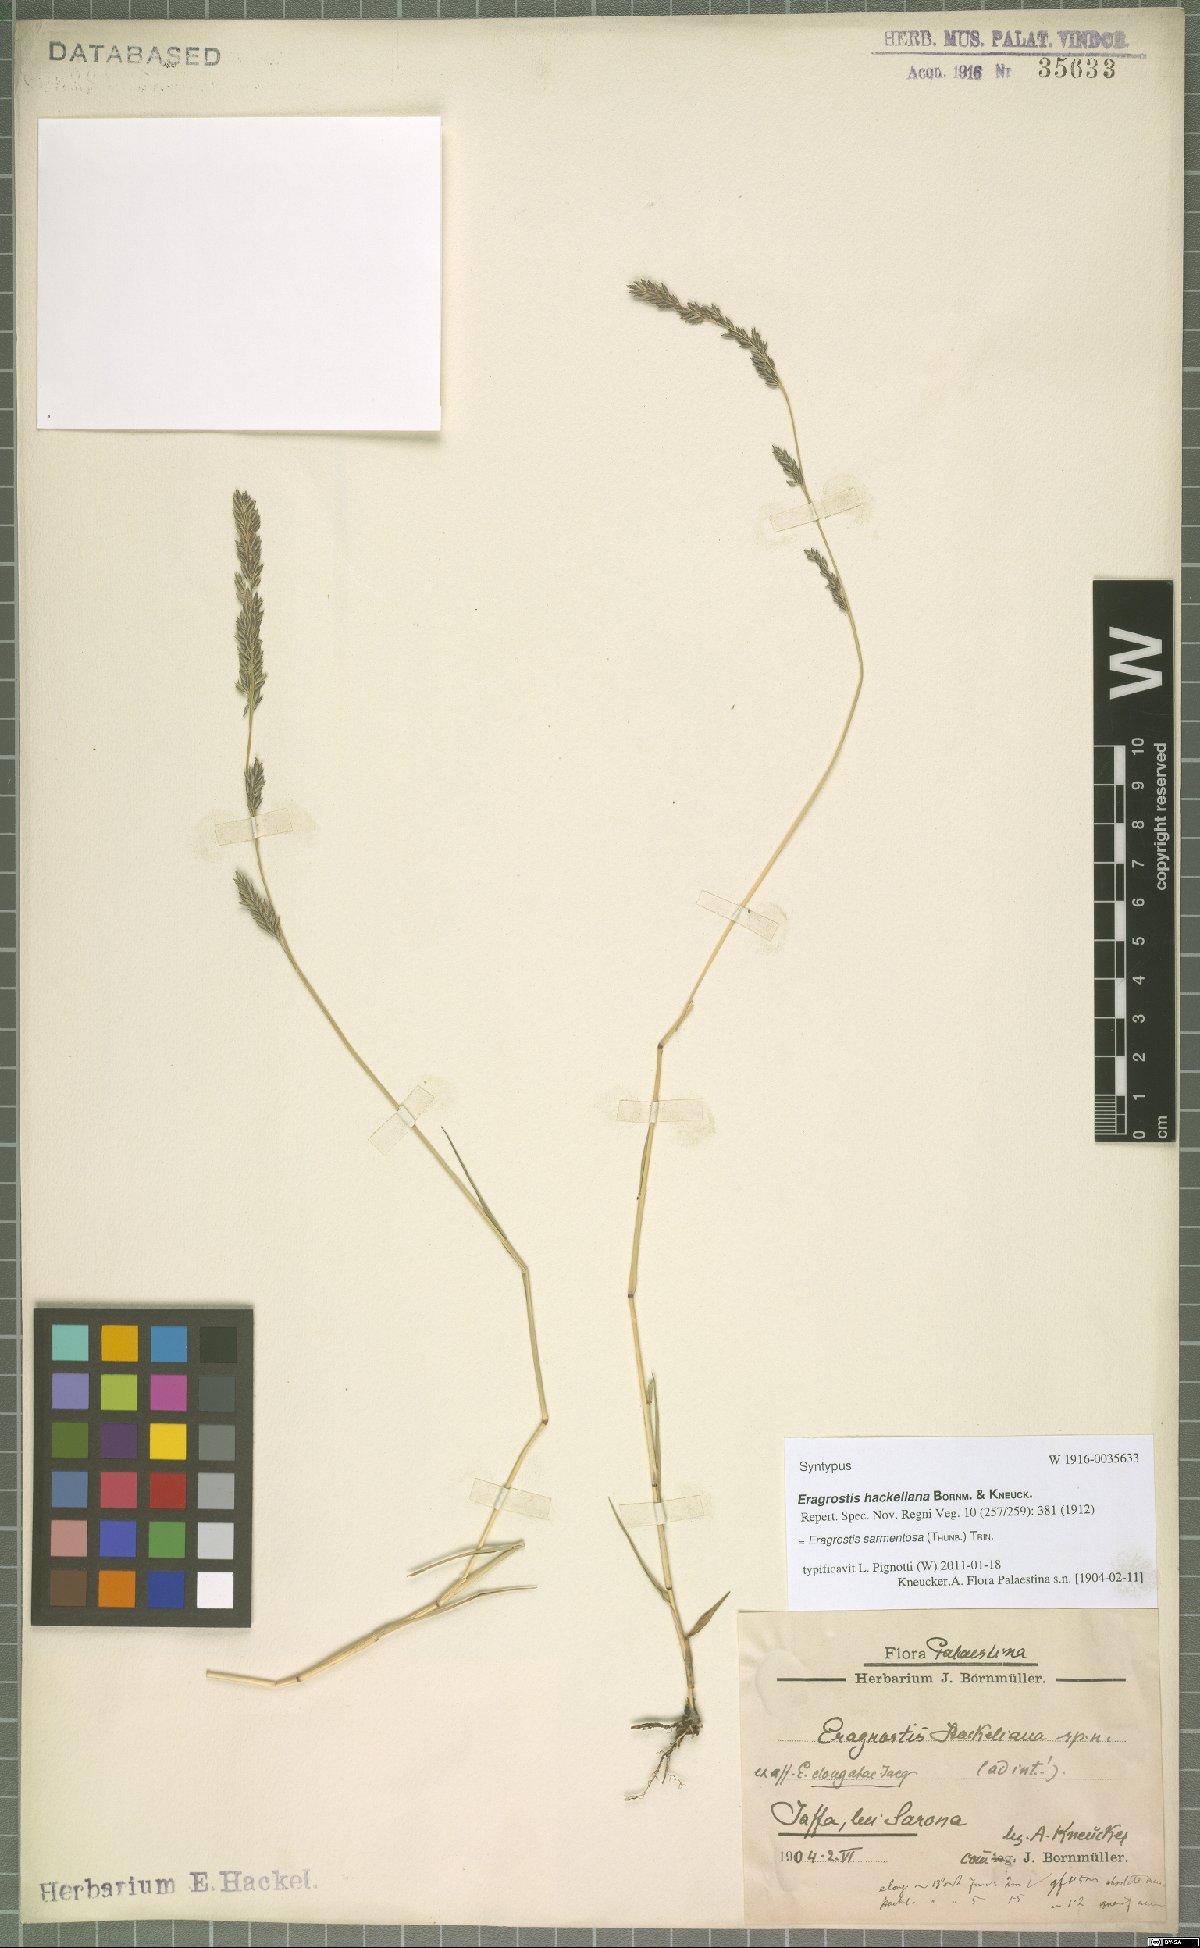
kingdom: Plantae
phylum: Tracheophyta
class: Liliopsida
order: Poales
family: Poaceae
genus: Eragrostis
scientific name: Eragrostis sarmentosa
